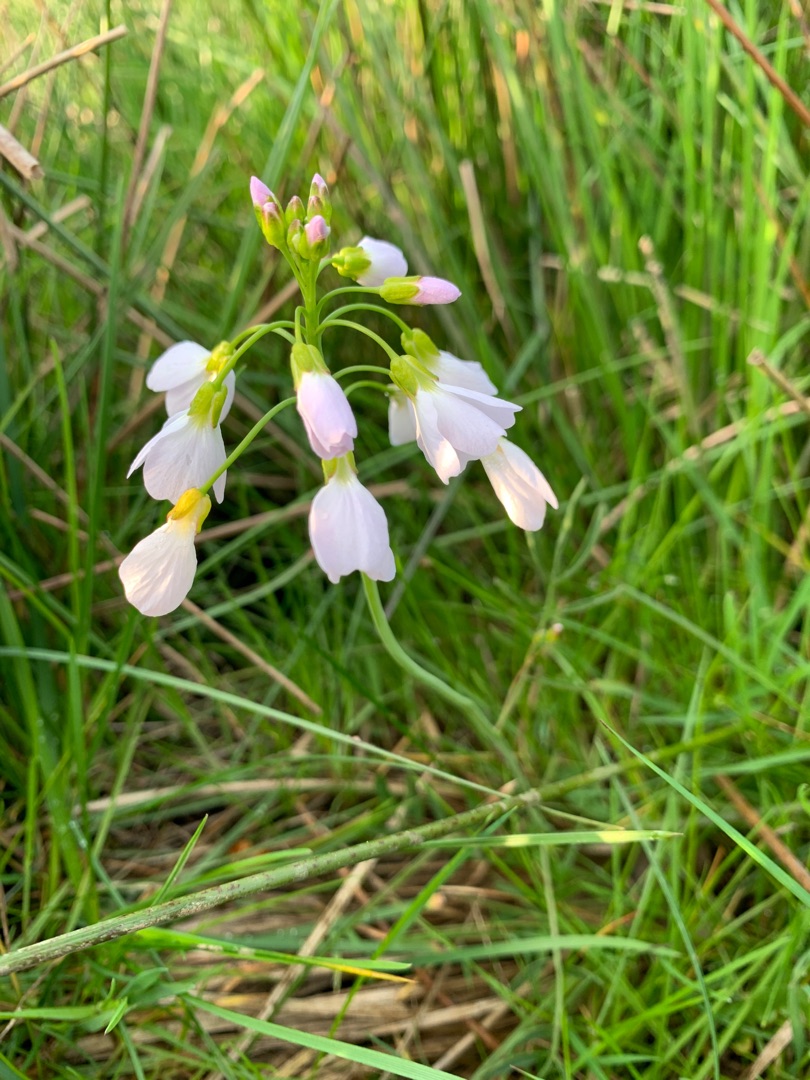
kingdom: Plantae
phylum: Tracheophyta
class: Magnoliopsida
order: Brassicales
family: Brassicaceae
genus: Cardamine
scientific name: Cardamine pratensis
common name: Engkarse
